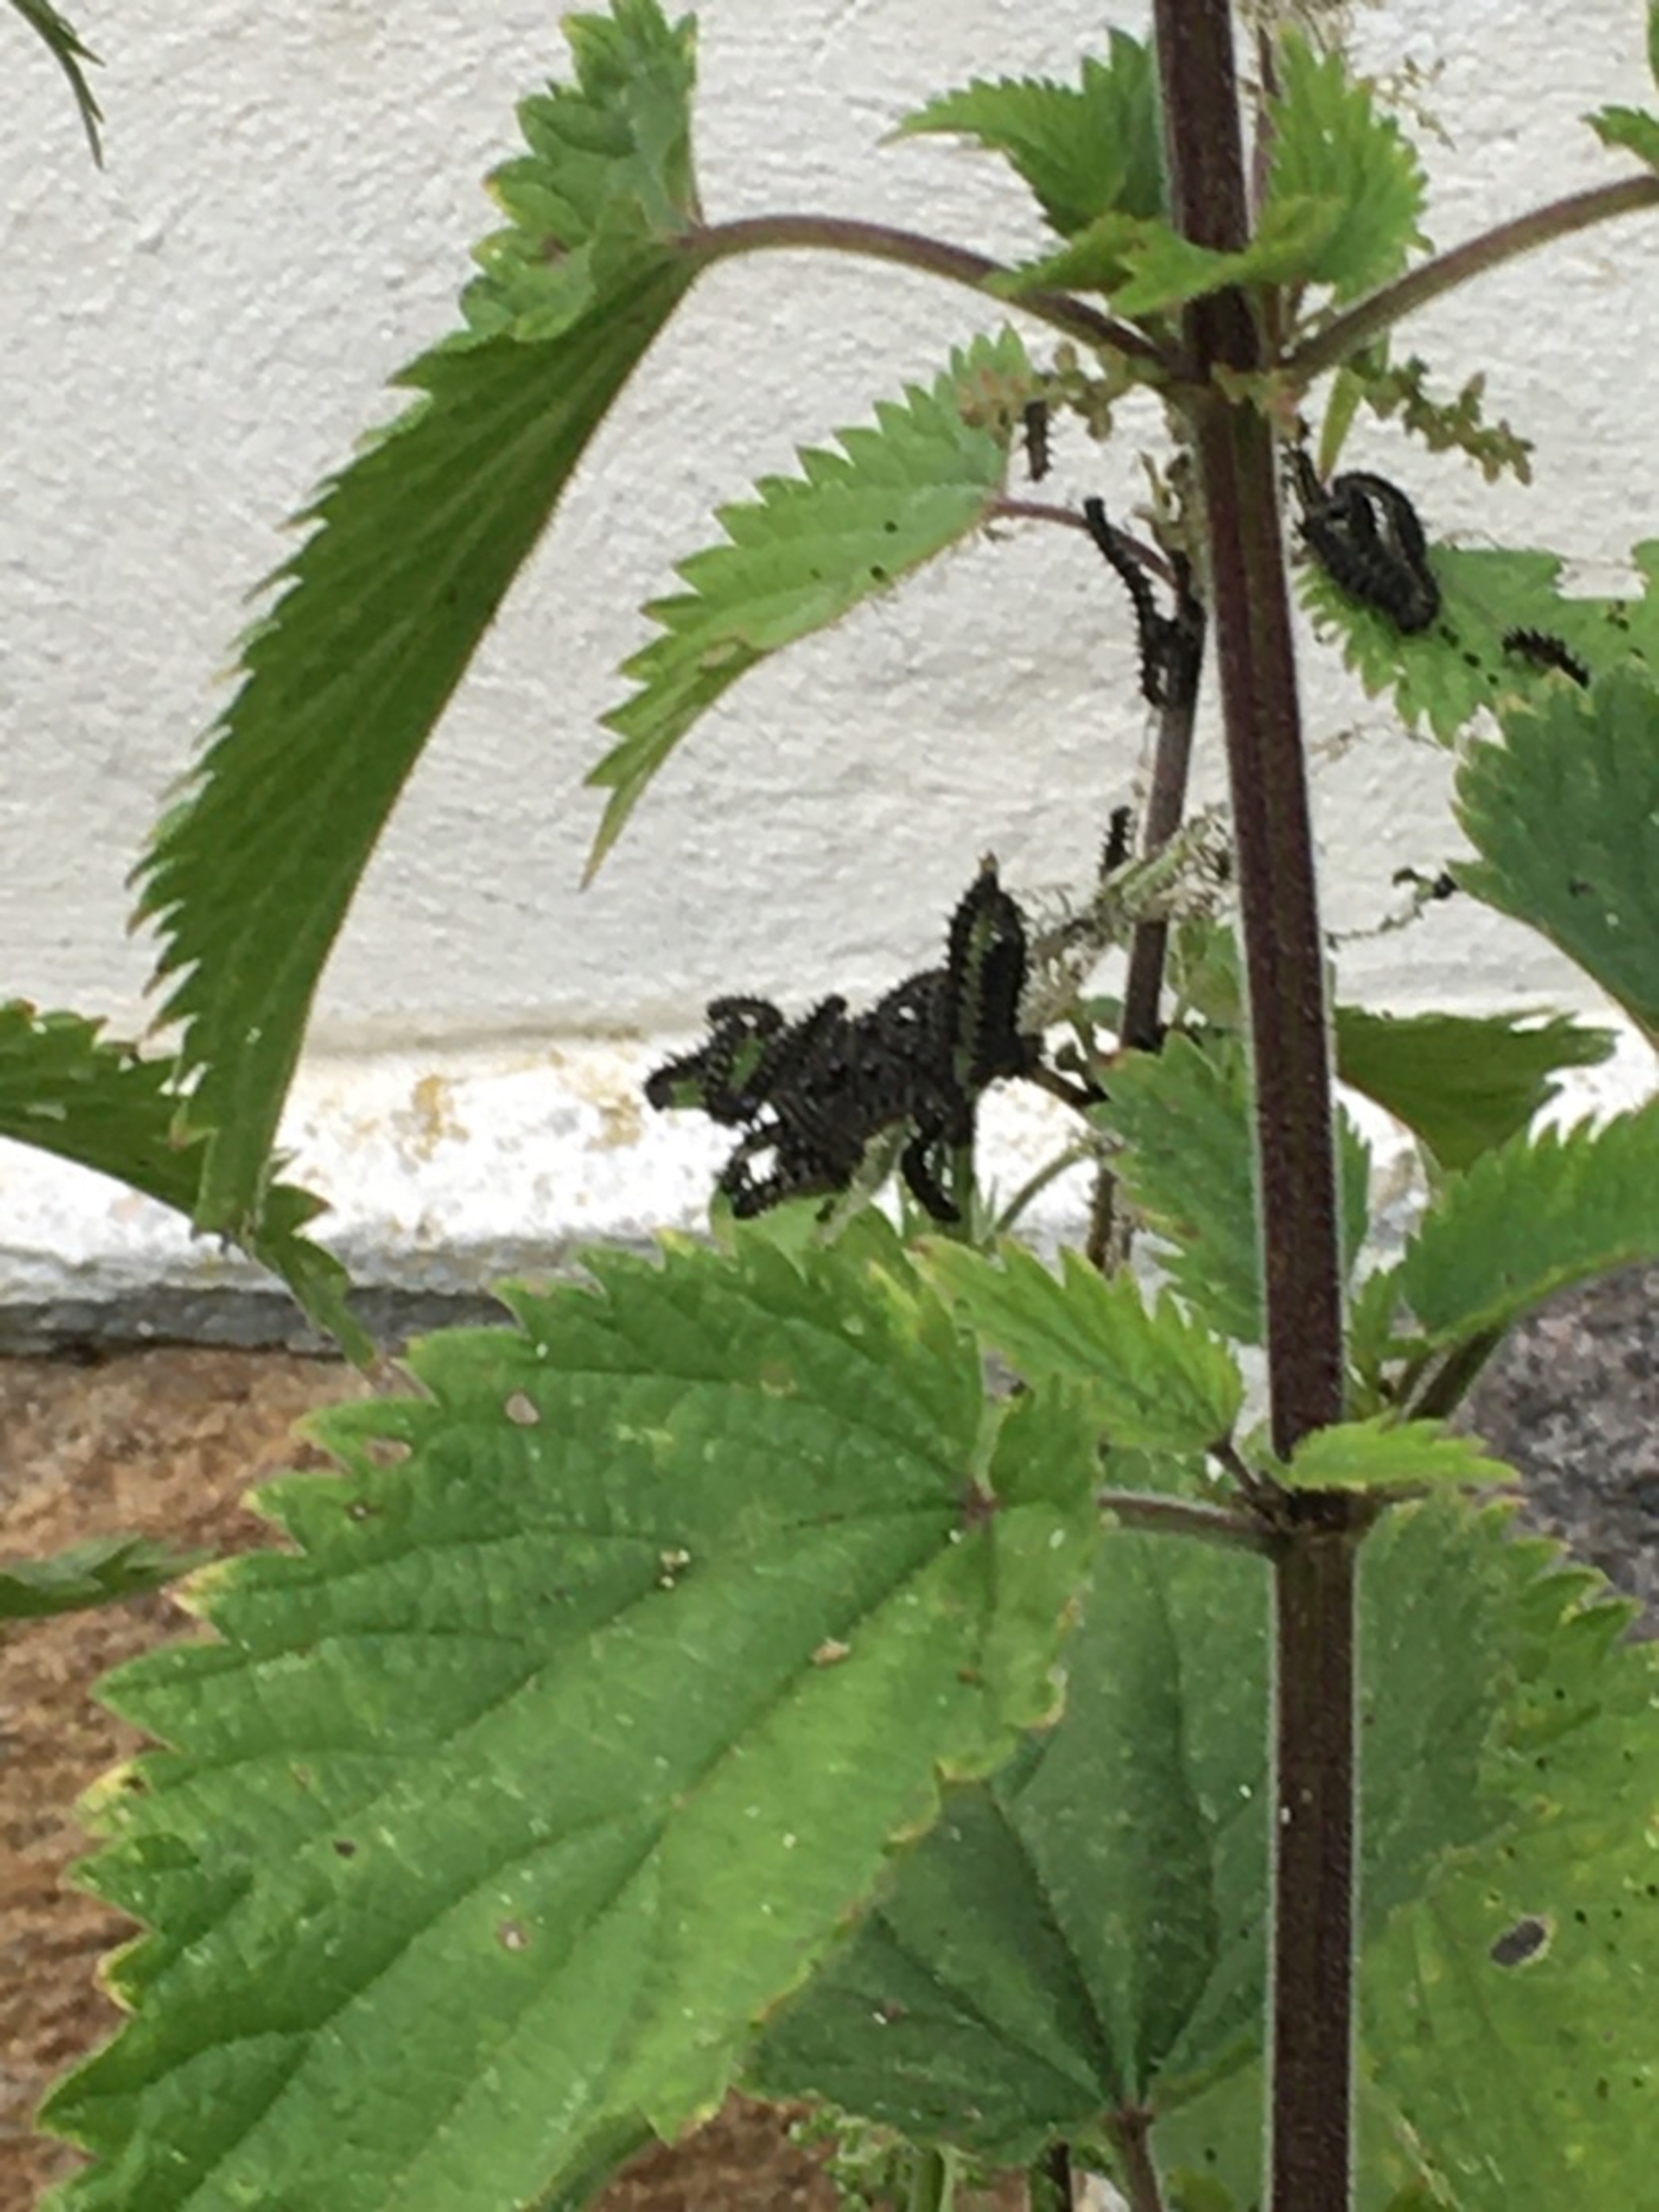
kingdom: Animalia
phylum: Arthropoda
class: Insecta
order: Lepidoptera
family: Nymphalidae
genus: Aglais
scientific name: Aglais urticae
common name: Nældens takvinge
